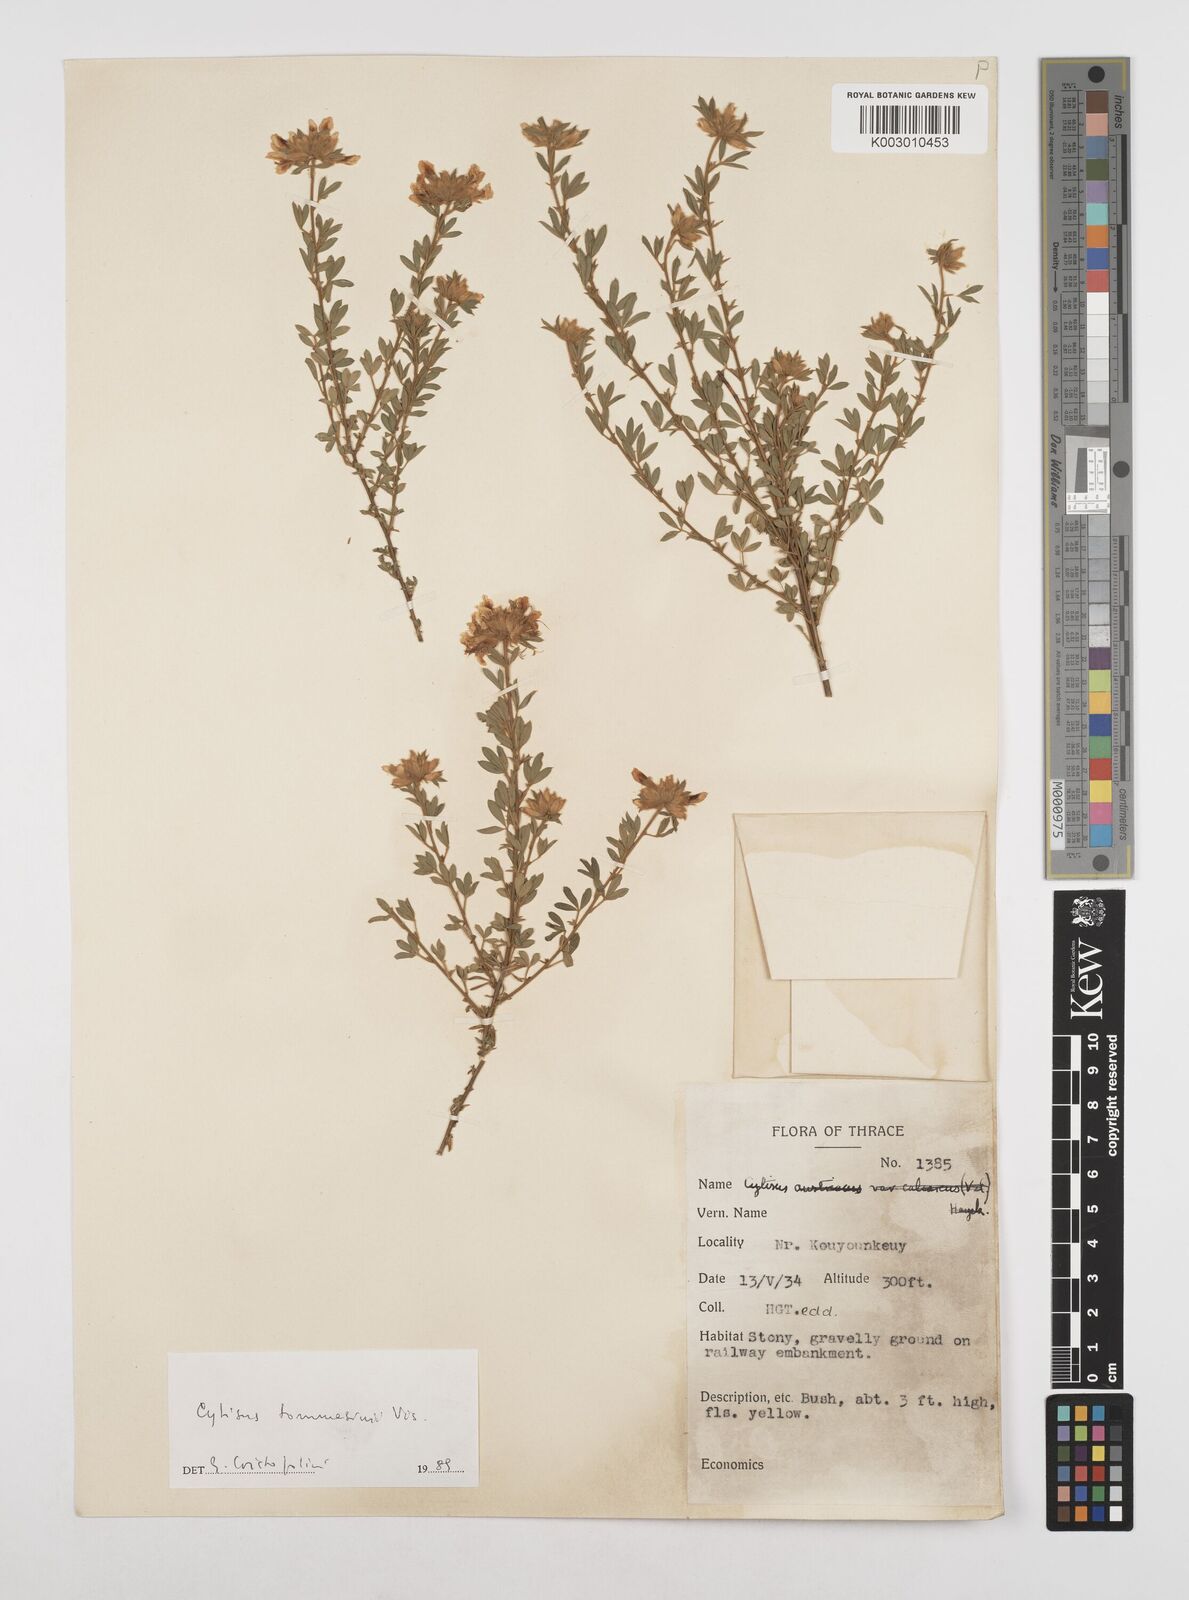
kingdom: Plantae
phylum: Tracheophyta
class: Magnoliopsida
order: Fabales
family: Fabaceae
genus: Chamaecytisus
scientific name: Chamaecytisus tommasinii
